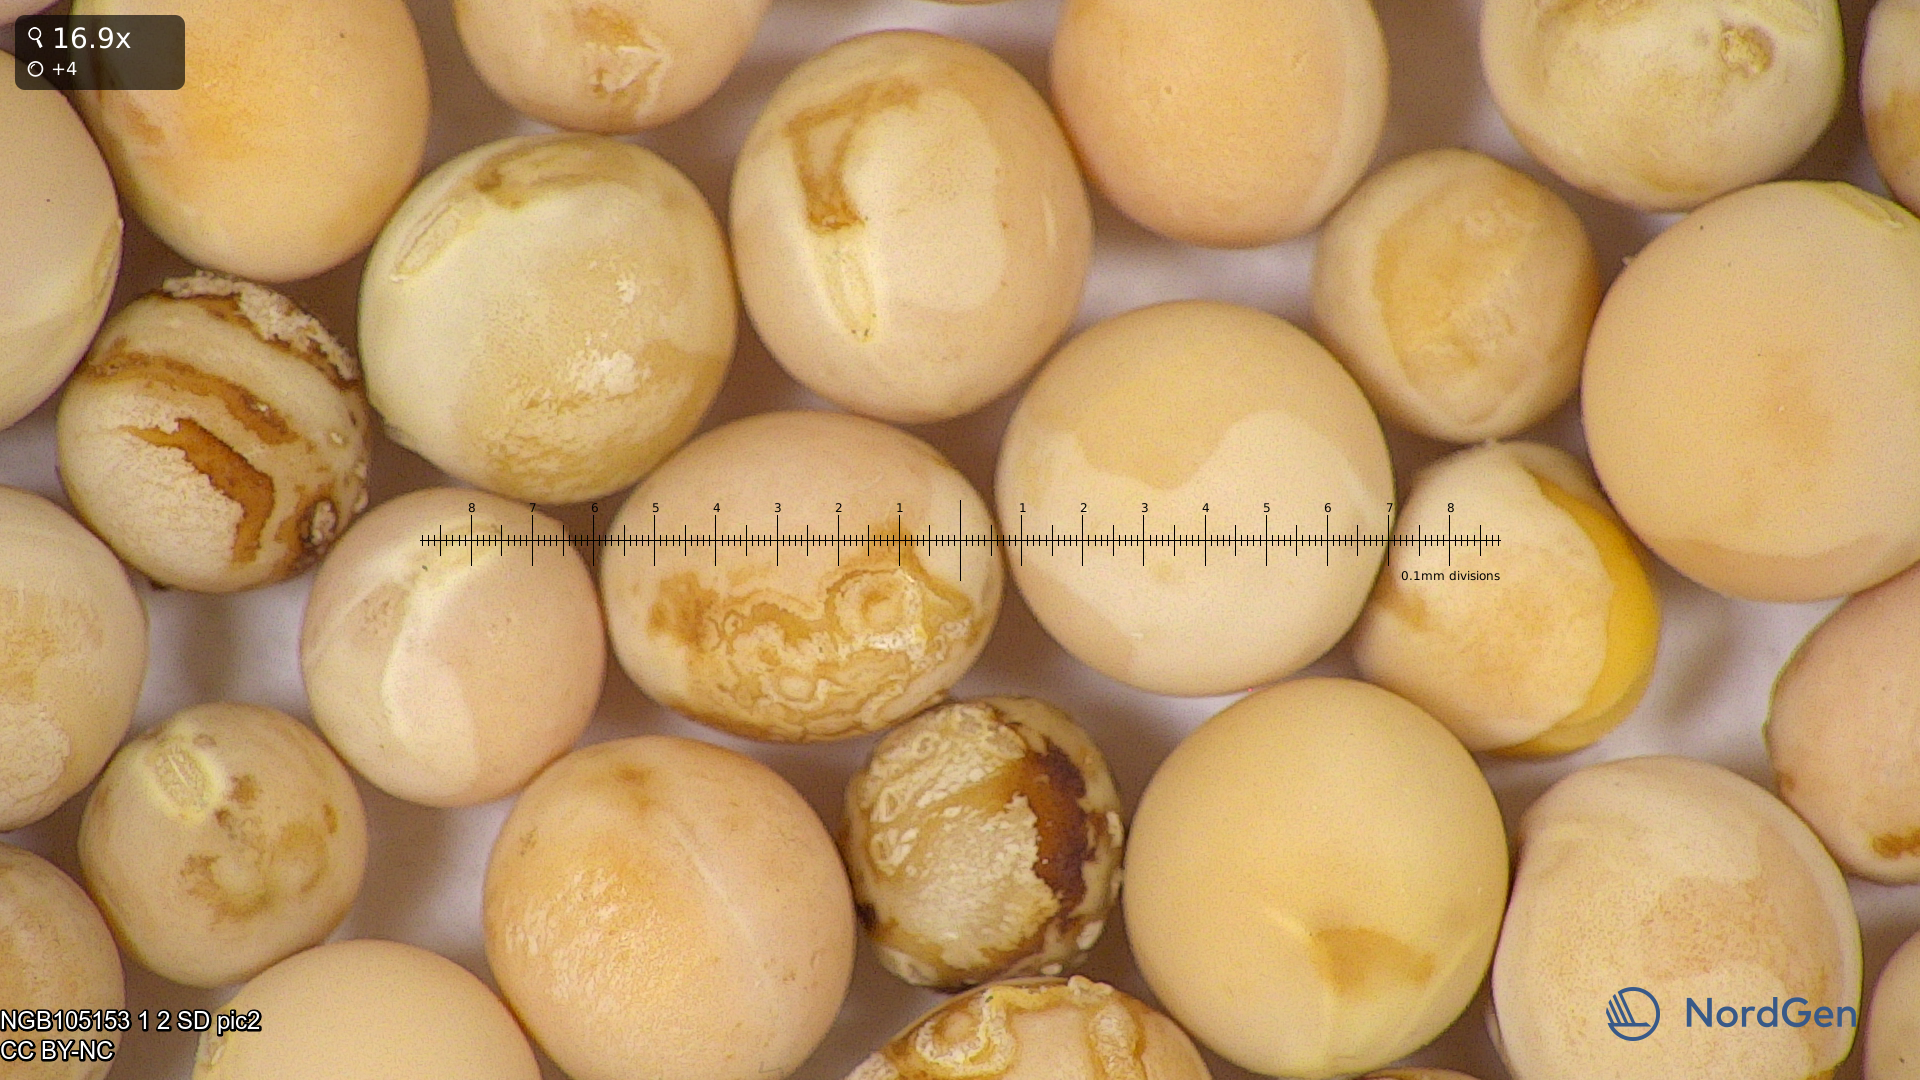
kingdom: Plantae
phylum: Tracheophyta
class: Magnoliopsida
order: Fabales
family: Fabaceae
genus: Lathyrus
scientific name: Lathyrus oleraceus
